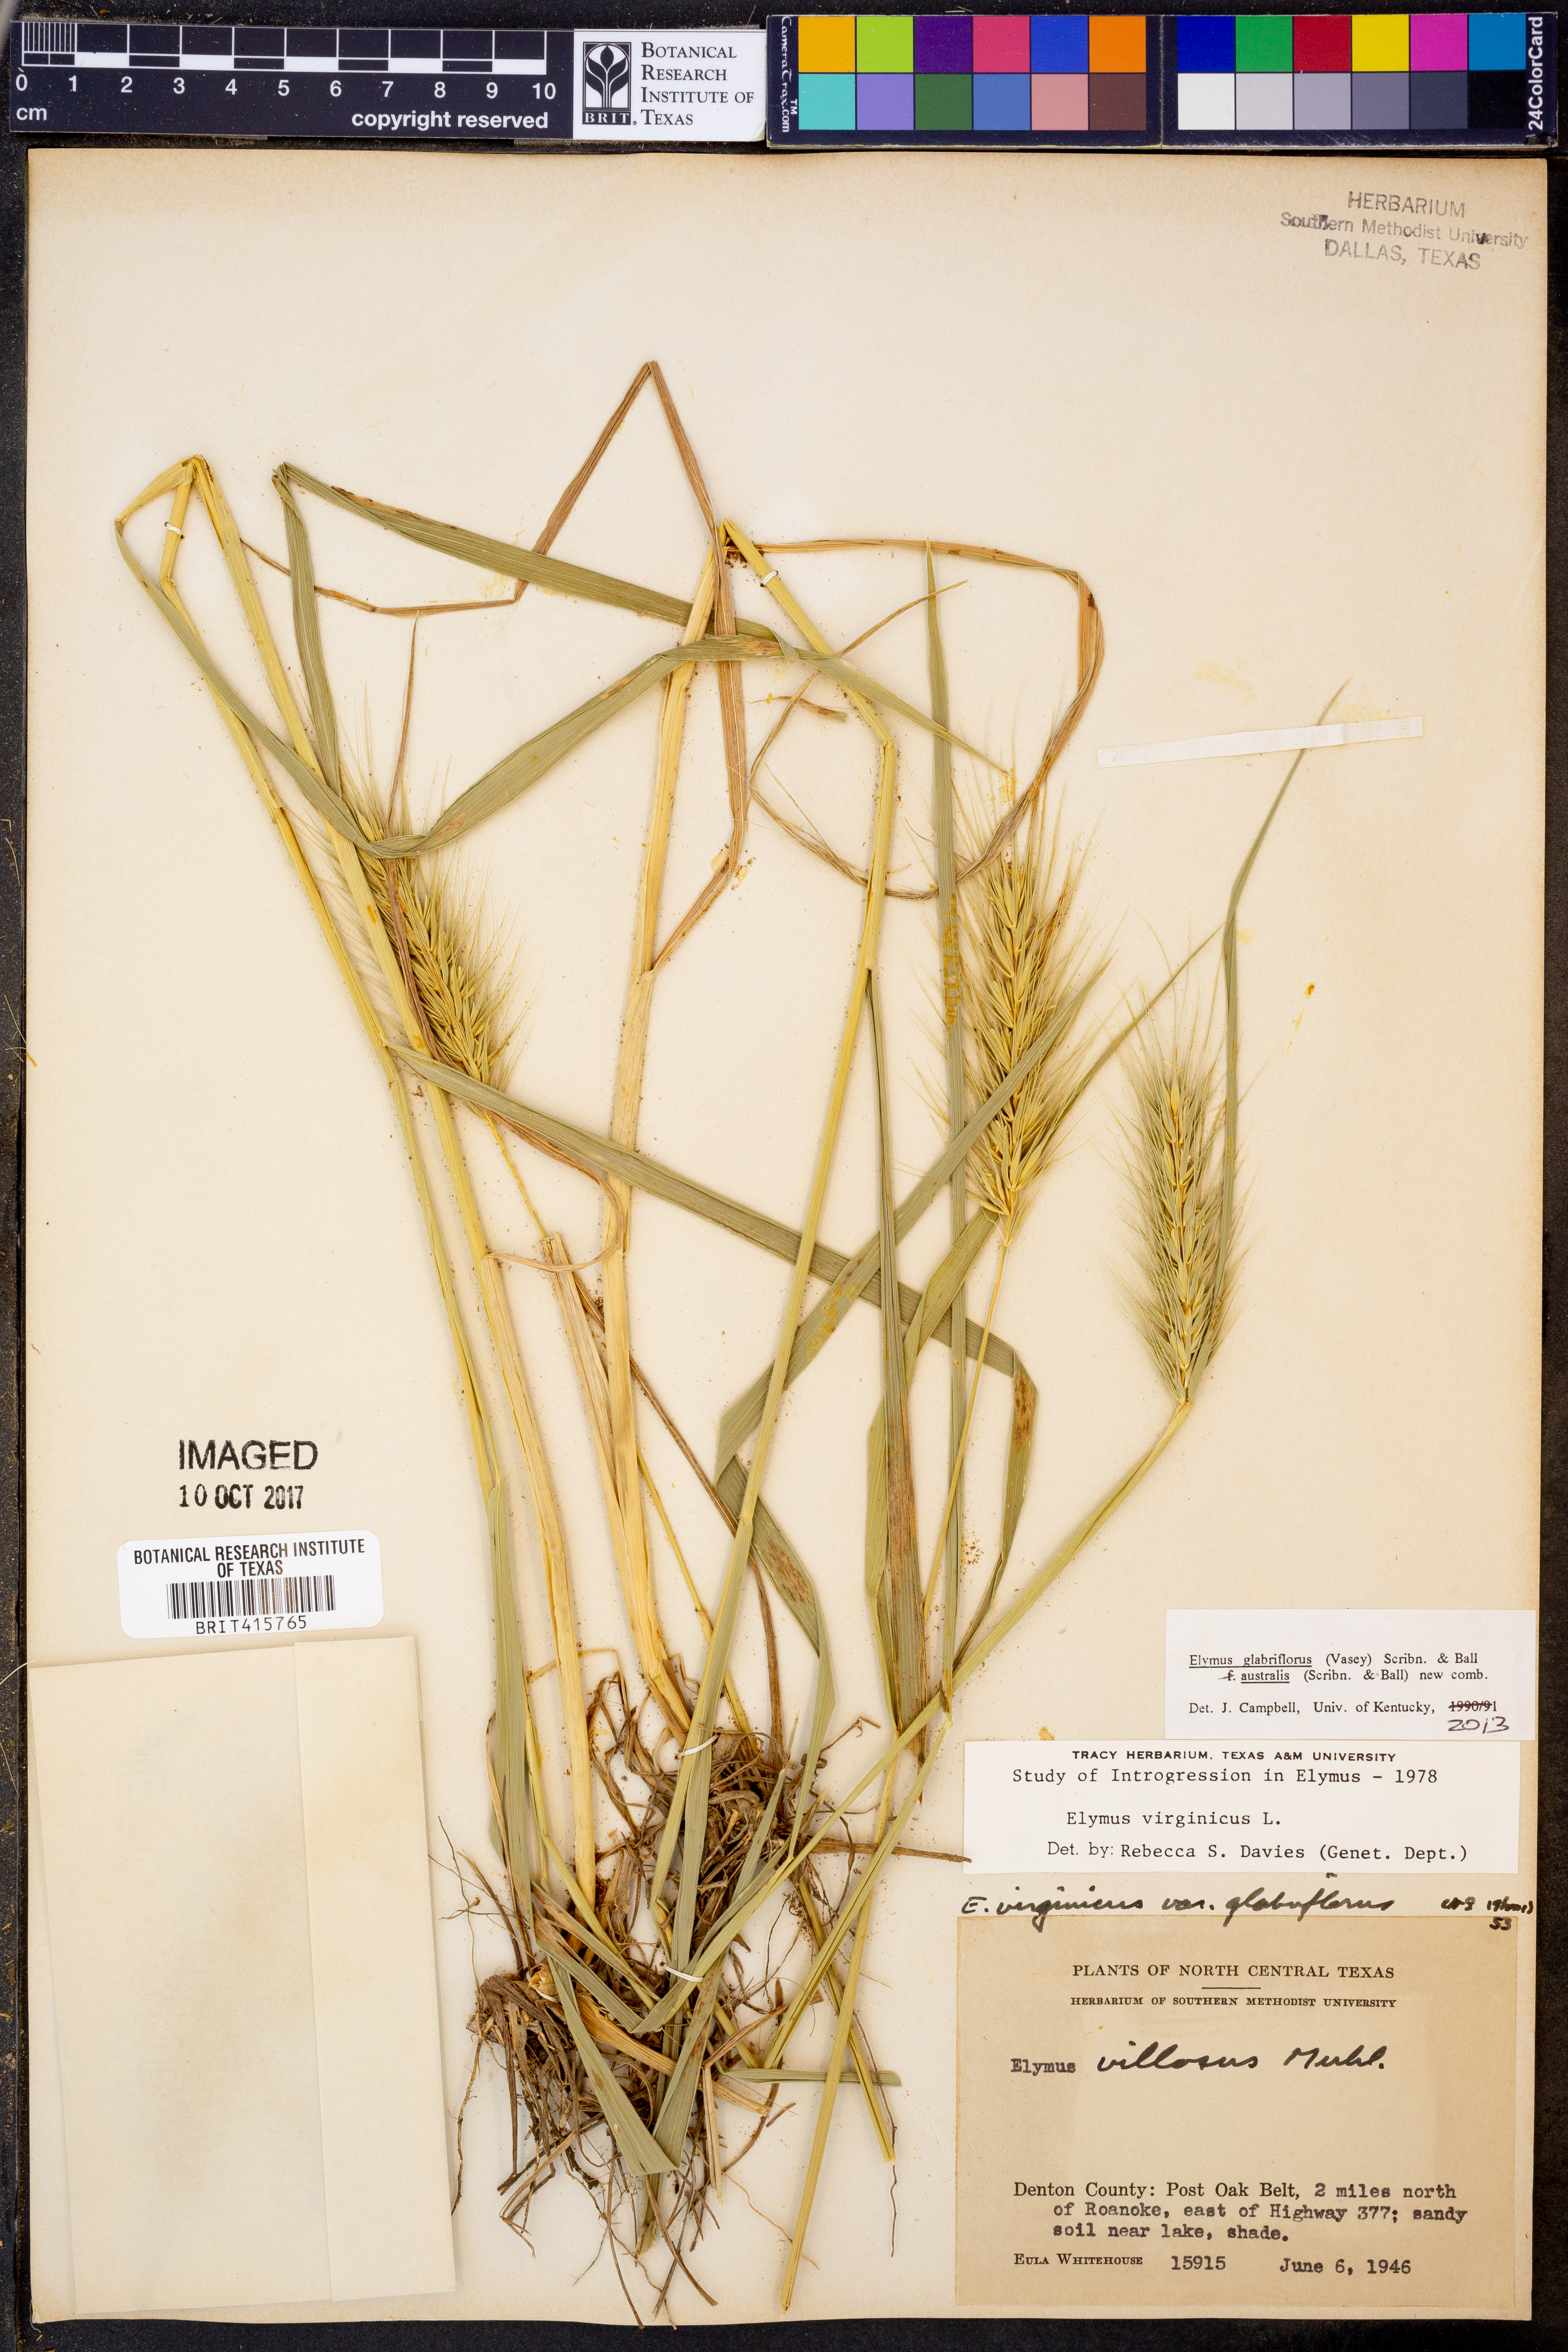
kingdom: Plantae
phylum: Tracheophyta
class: Liliopsida
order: Poales
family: Poaceae
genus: Elymus
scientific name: Elymus virginicus
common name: Common eastern wildrye
